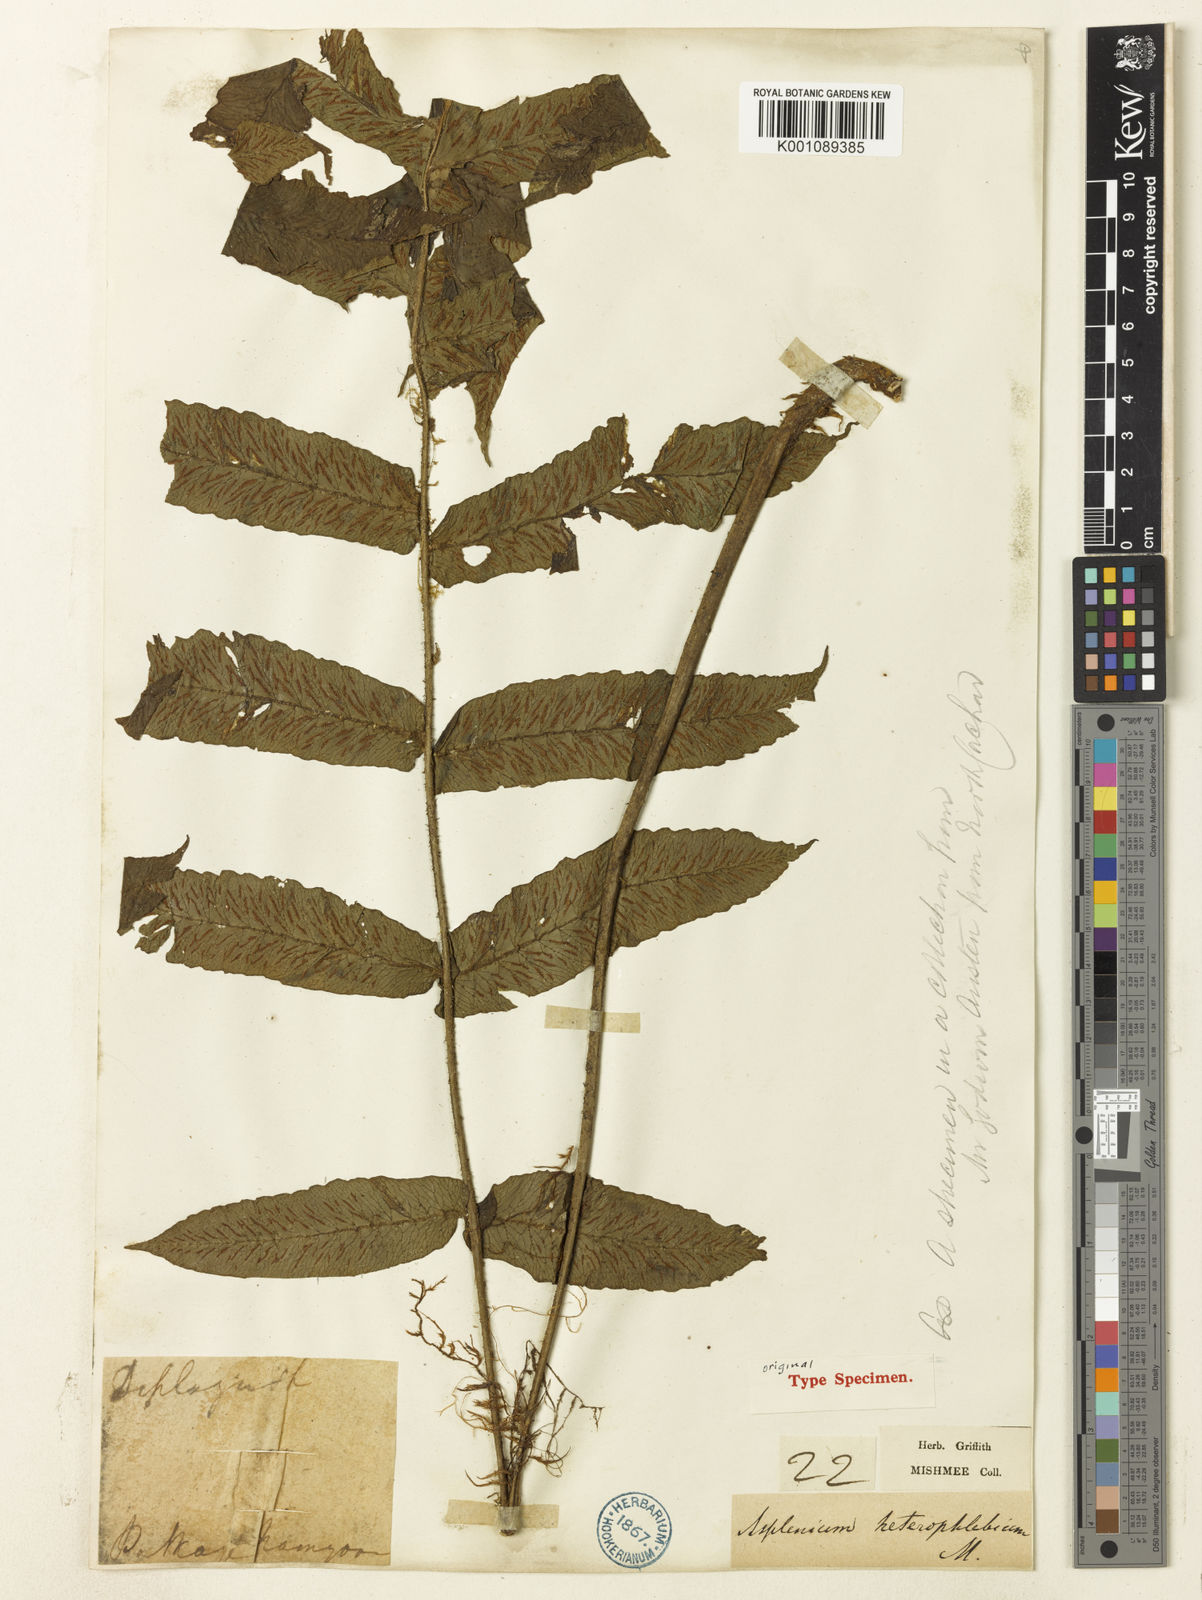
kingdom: Plantae
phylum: Tracheophyta
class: Polypodiopsida
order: Polypodiales
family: Athyriaceae
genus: Deparia
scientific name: Deparia heterophlebia
